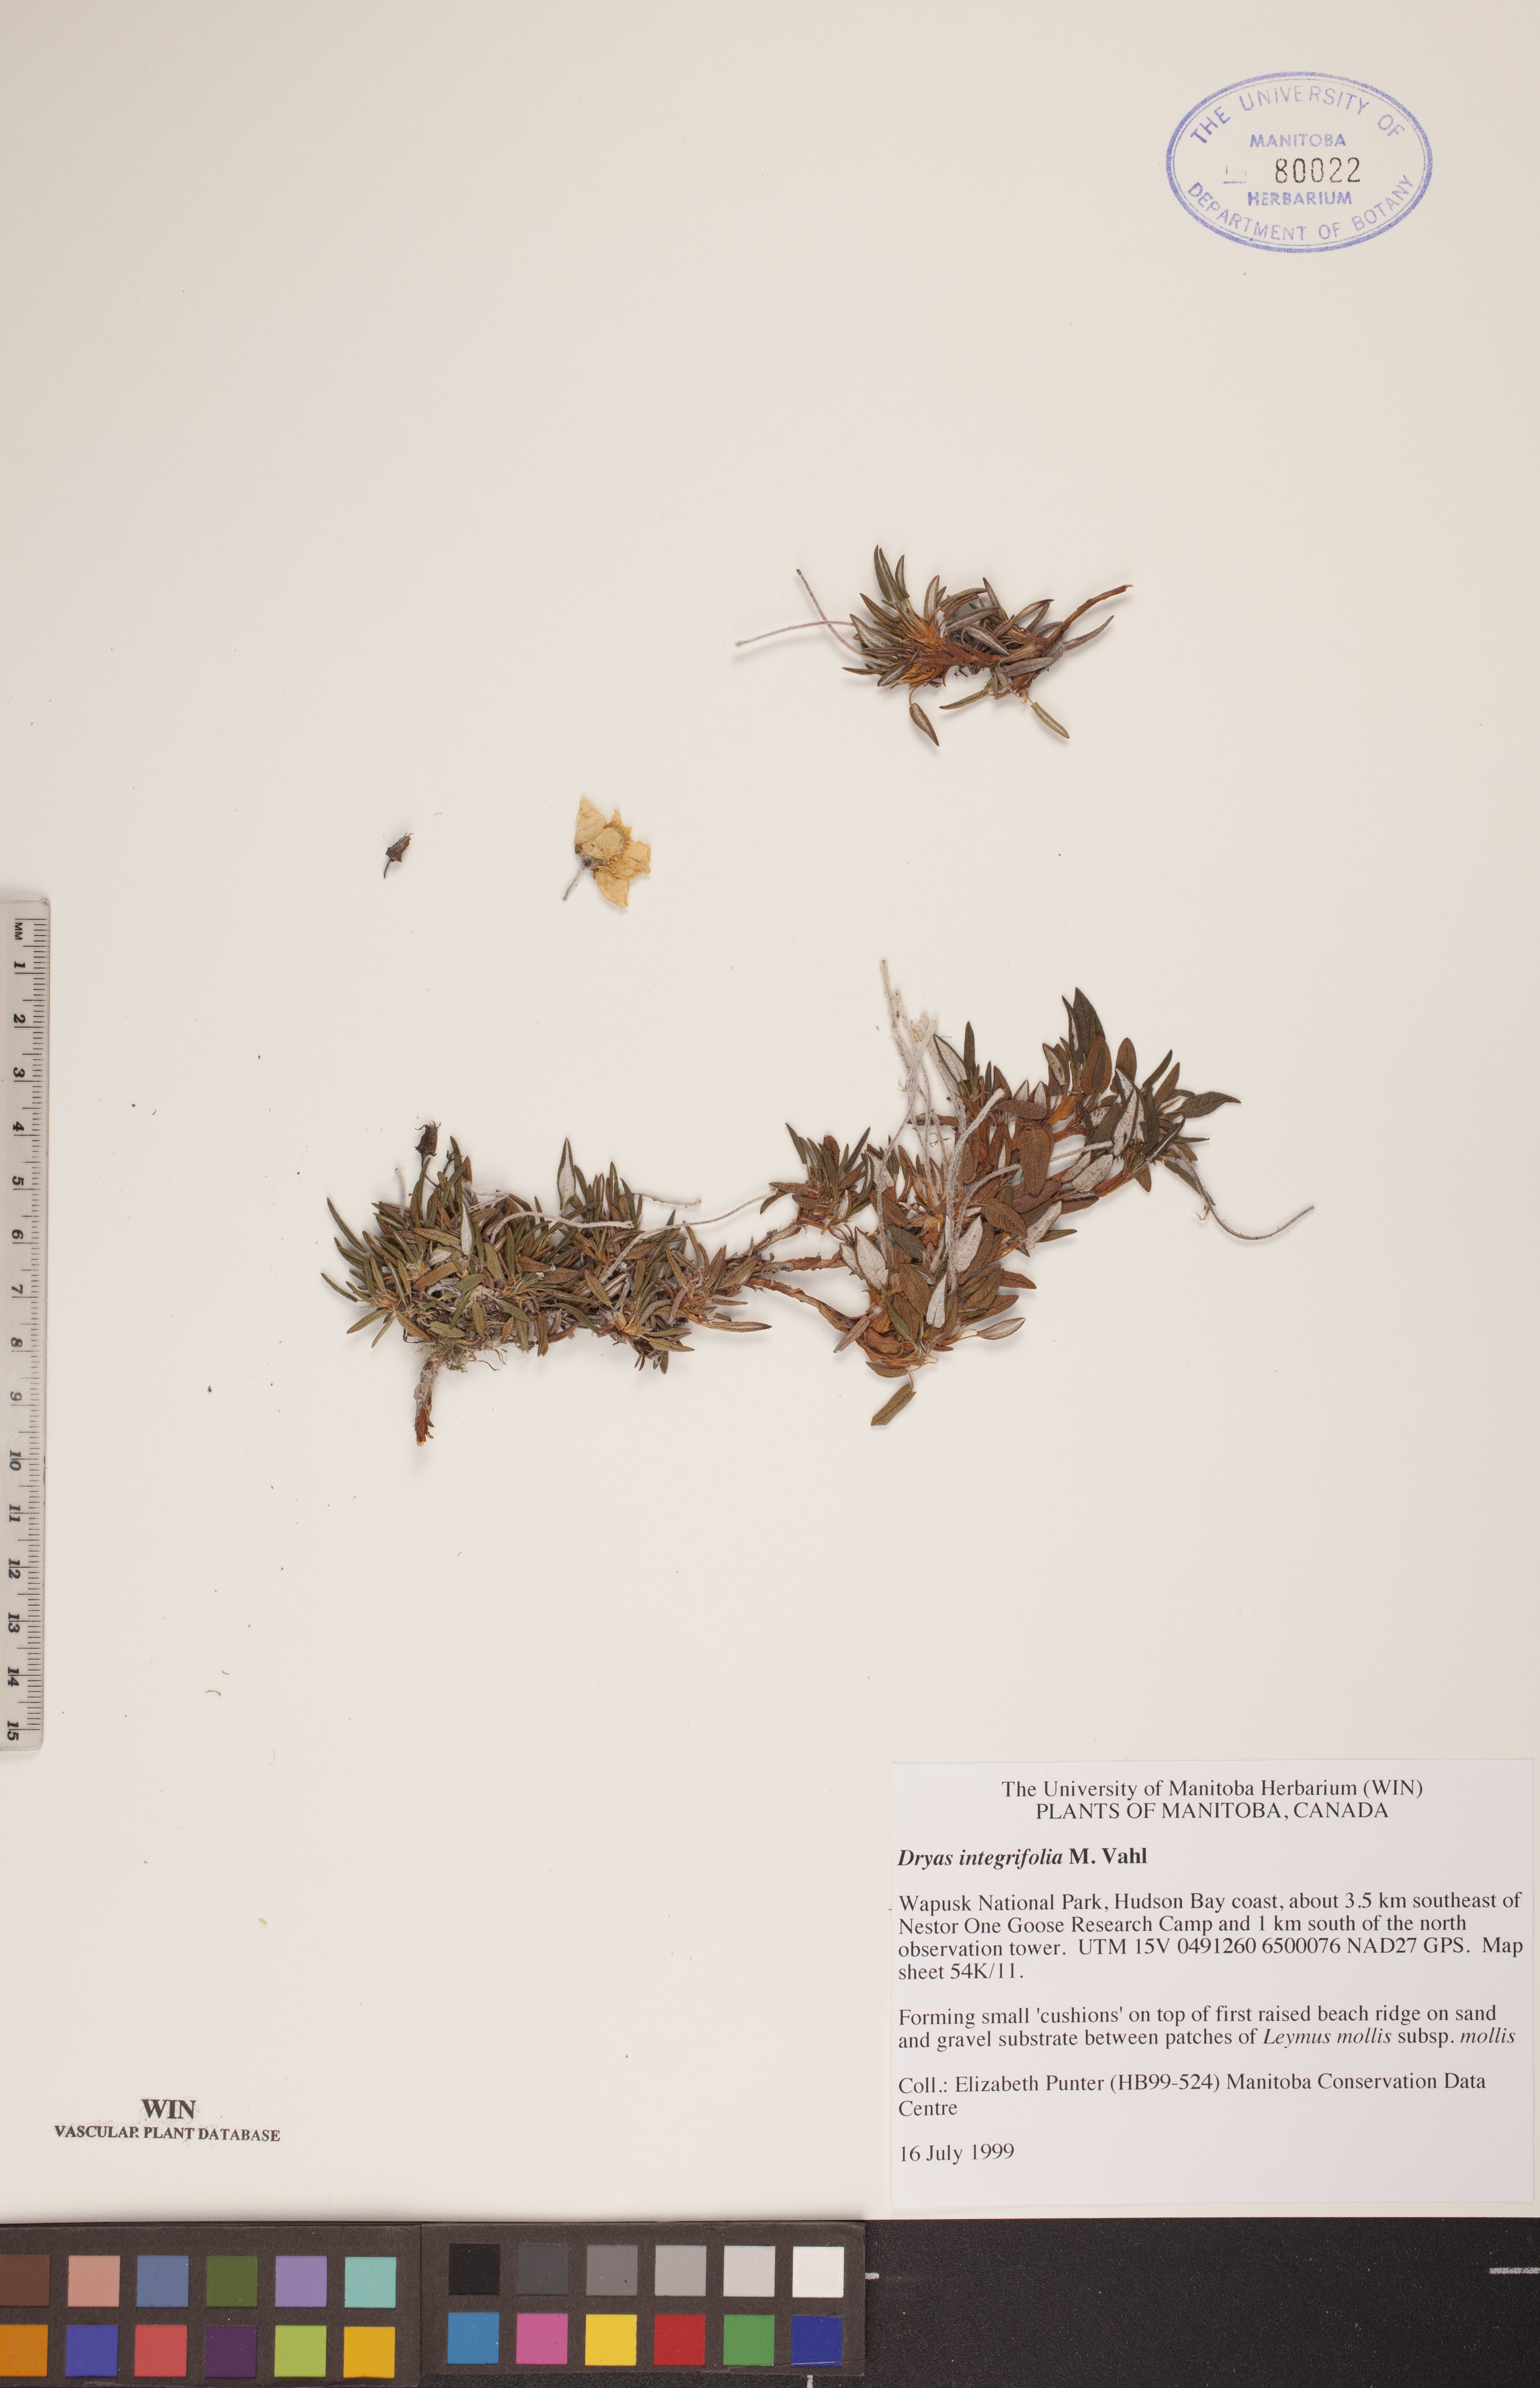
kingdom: Plantae
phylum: Tracheophyta
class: Magnoliopsida
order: Rosales
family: Rosaceae
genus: Dryas
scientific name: Dryas integrifolia
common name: Entire-leaved mountain avens
